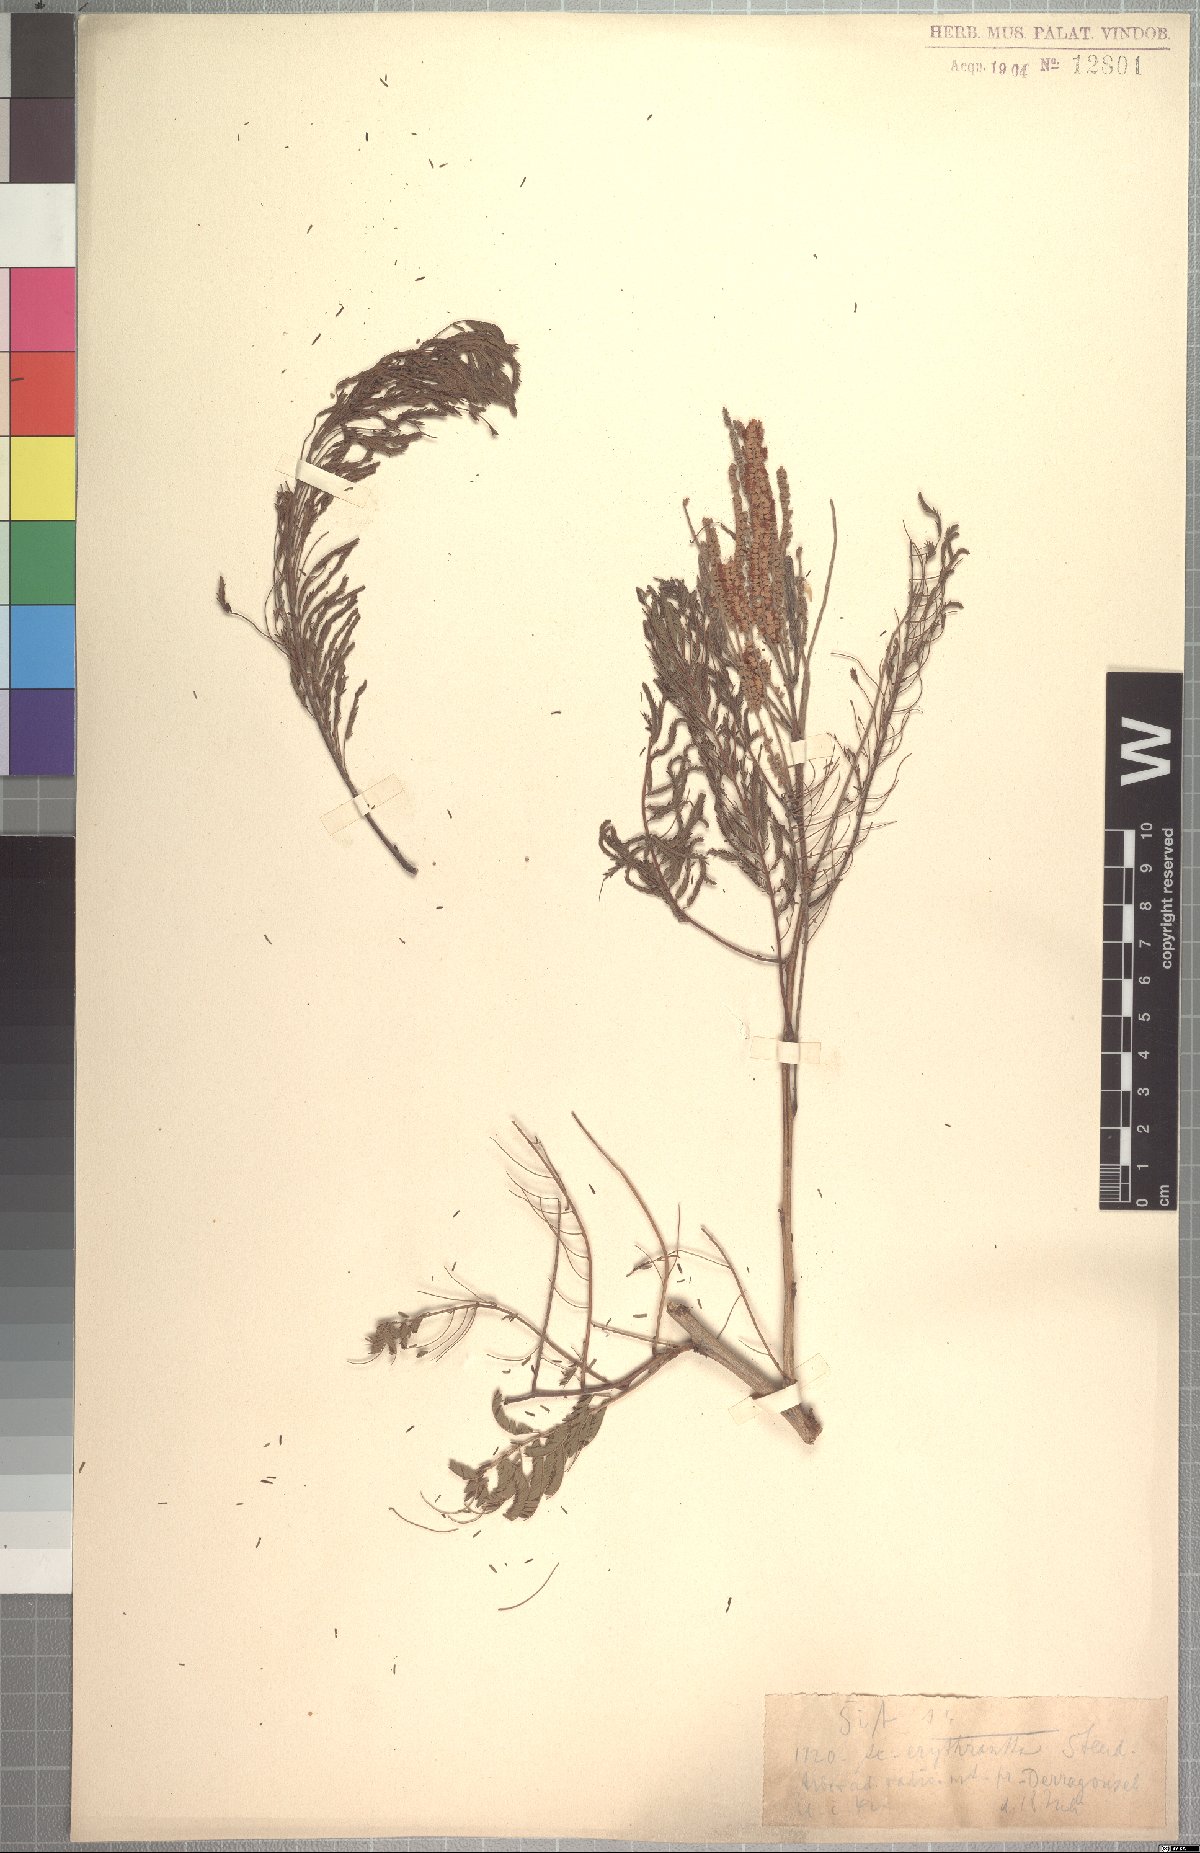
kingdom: Plantae
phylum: Tracheophyta
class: Magnoliopsida
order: Fabales
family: Fabaceae
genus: Senegalia
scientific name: Senegalia polyacantha
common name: Whitethorn
